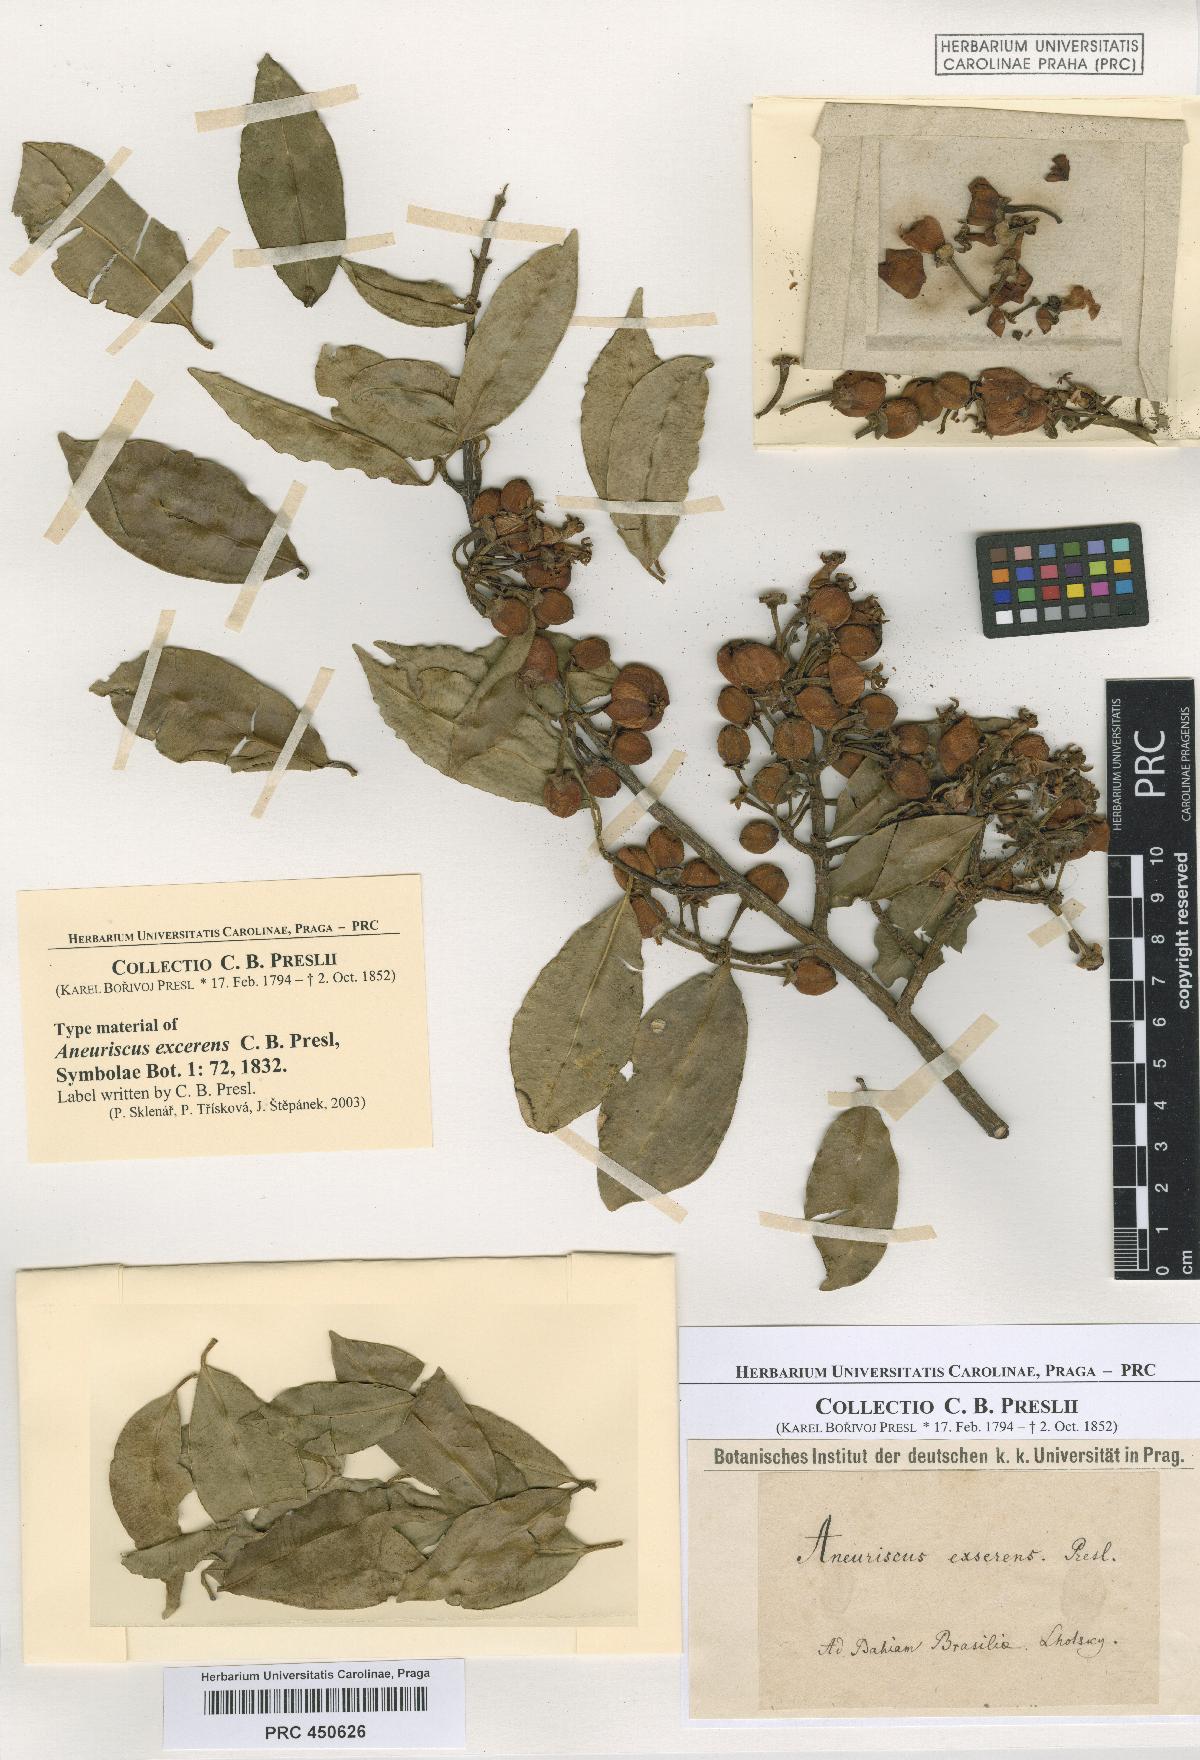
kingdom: Plantae
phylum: Tracheophyta
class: Magnoliopsida
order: Malpighiales
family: Clusiaceae
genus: Symphonia
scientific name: Symphonia globulifera
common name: Boarwood
